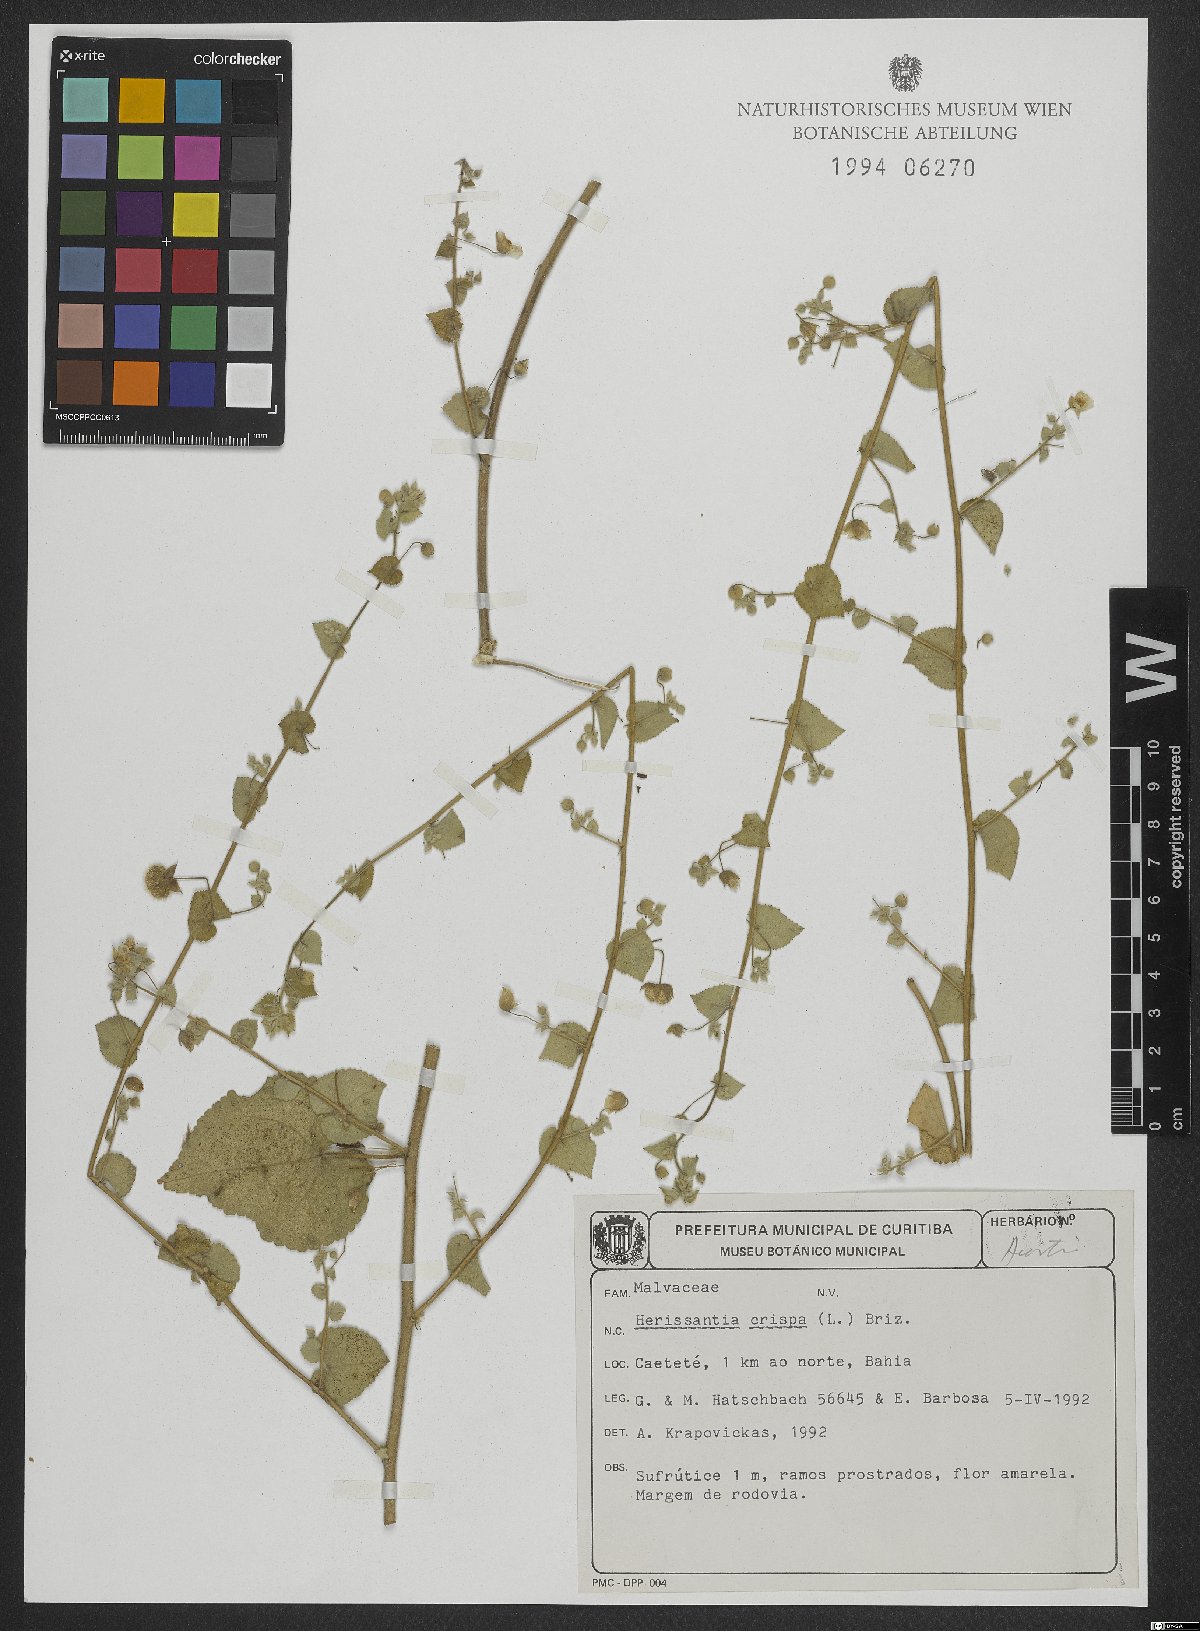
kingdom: Plantae
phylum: Tracheophyta
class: Magnoliopsida
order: Malvales
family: Malvaceae
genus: Herissantia
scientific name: Herissantia crispa
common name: Bladdermallow
